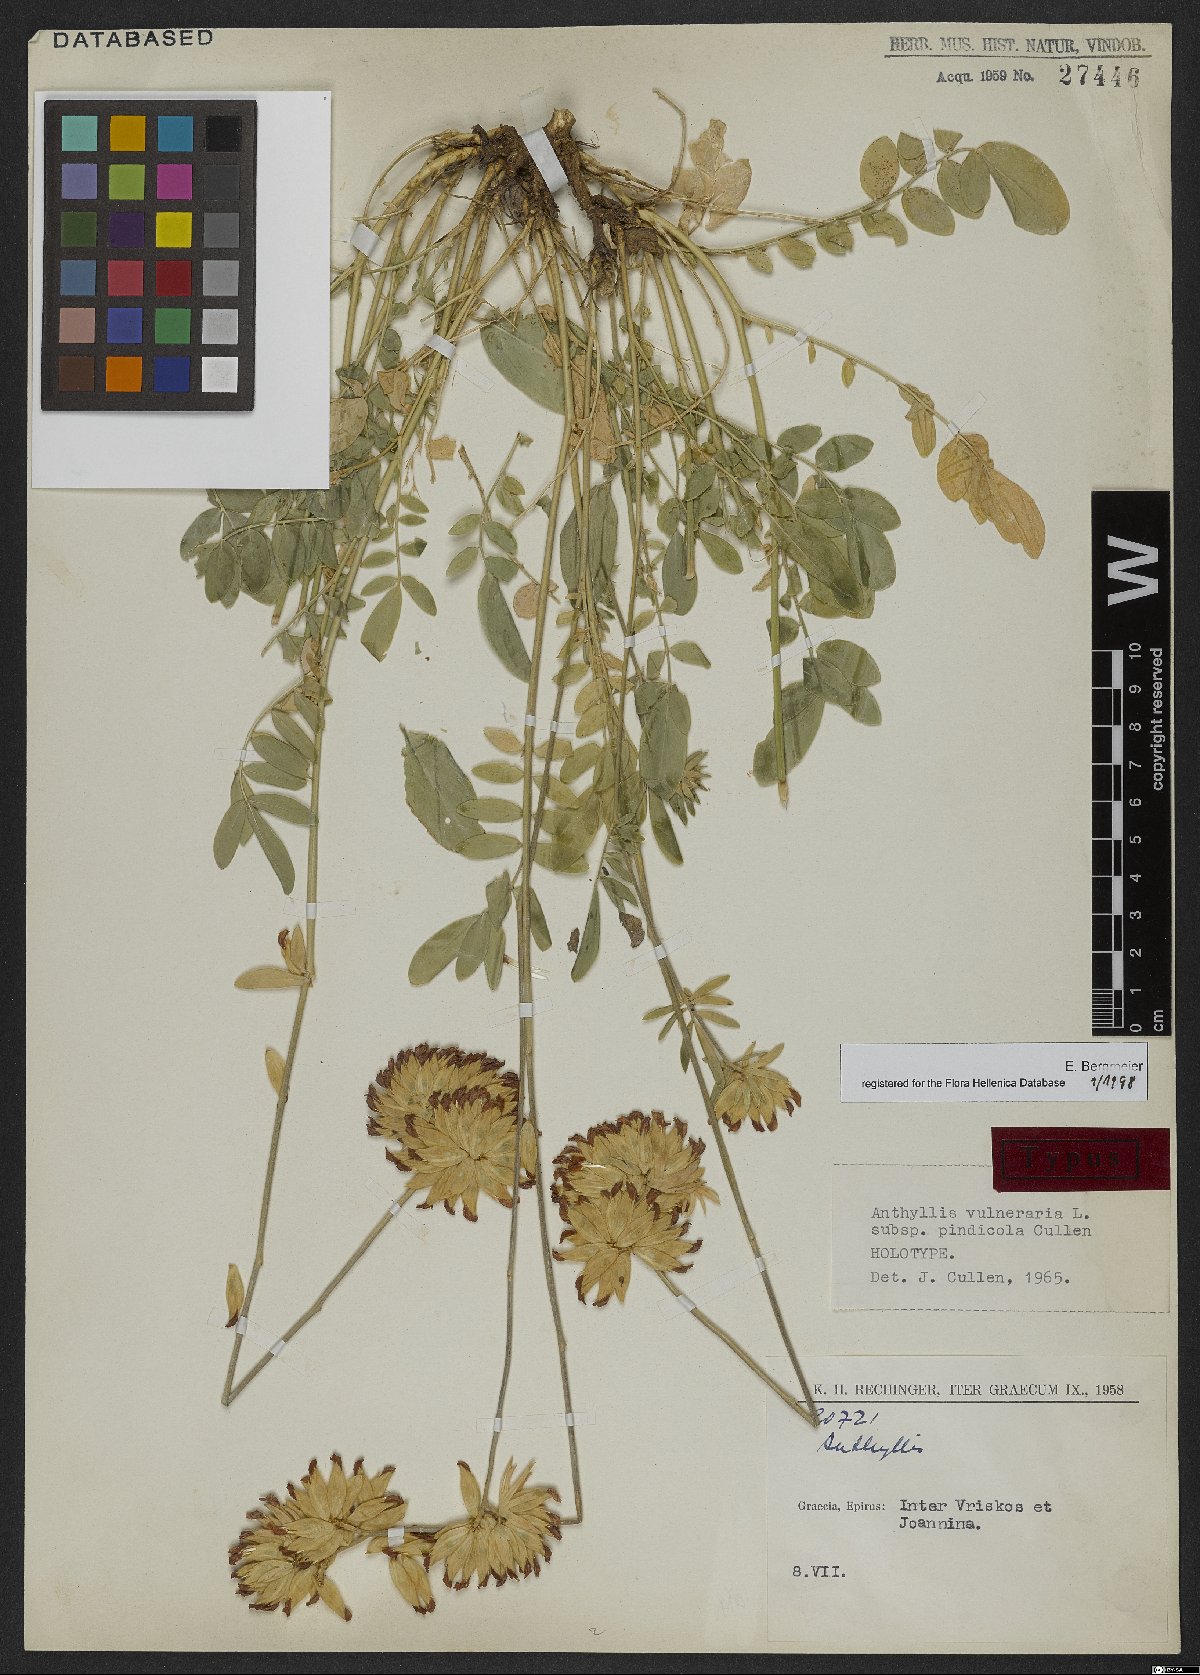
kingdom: Plantae
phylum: Tracheophyta
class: Magnoliopsida
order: Fabales
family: Fabaceae
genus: Anthyllis
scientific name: Anthyllis vulneraria
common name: Kidney vetch
